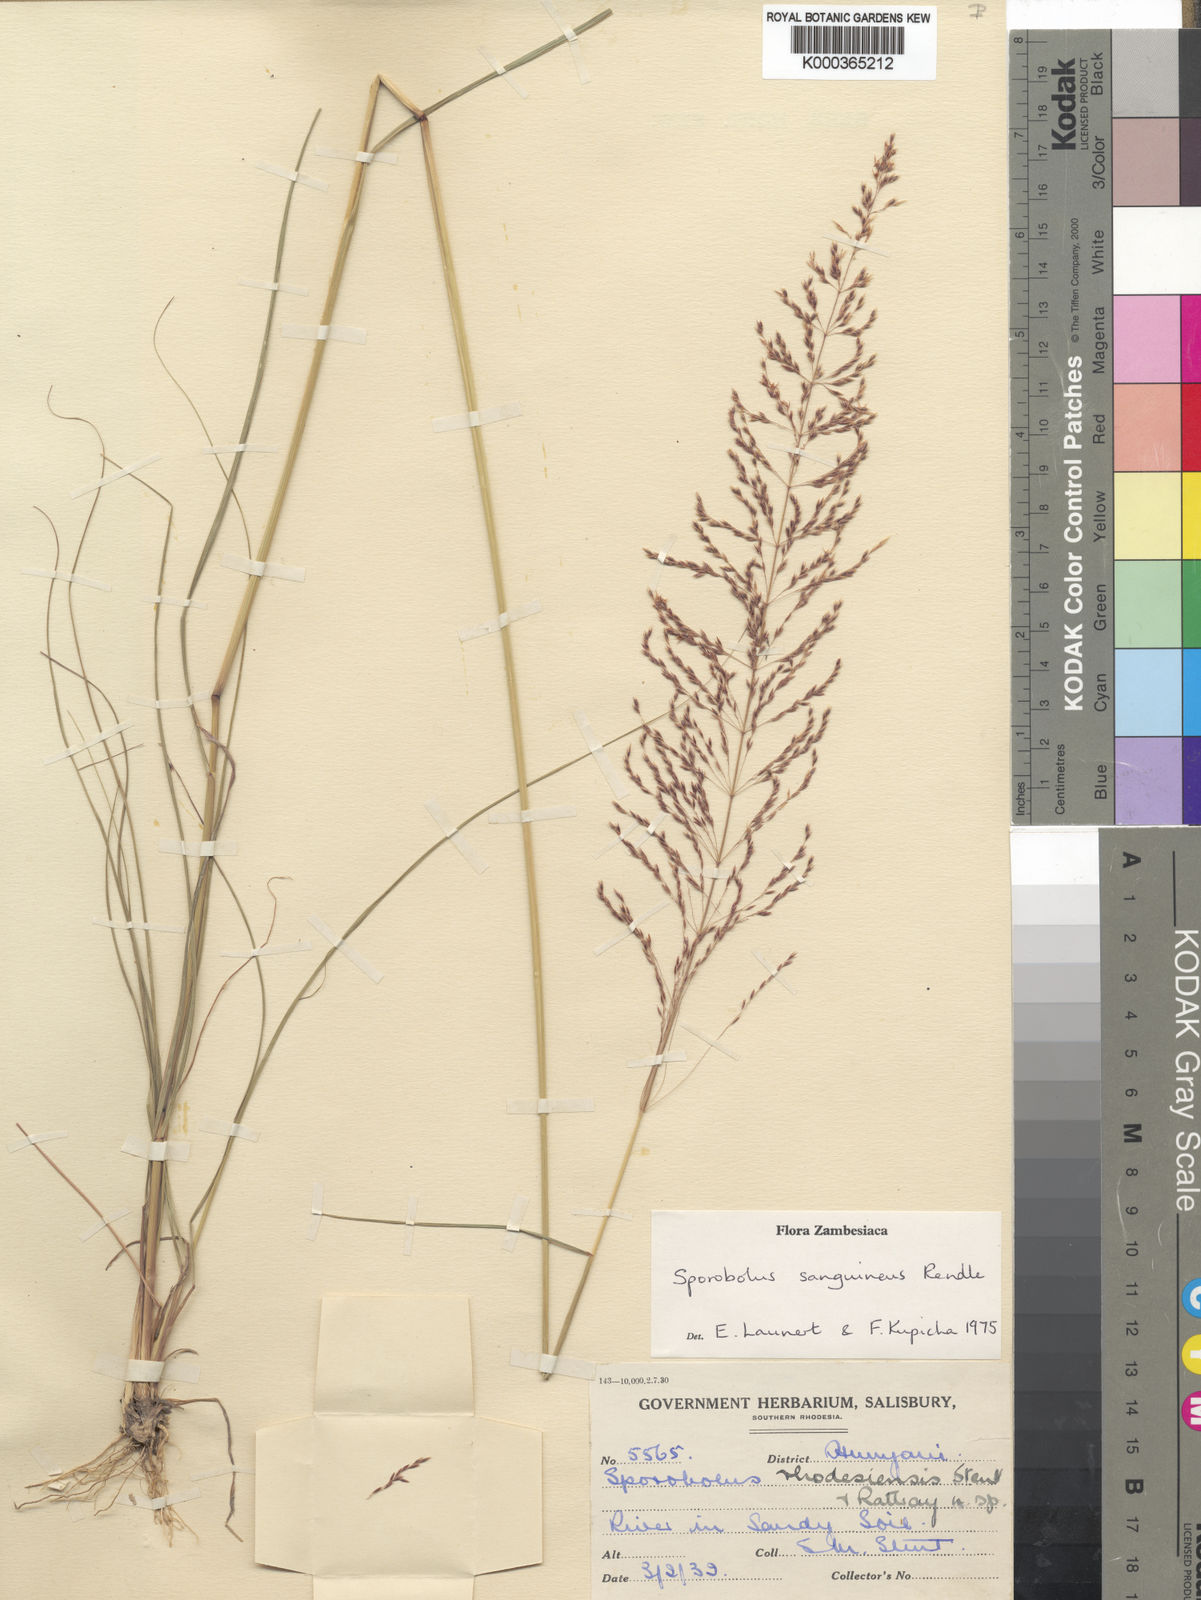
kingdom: Plantae
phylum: Tracheophyta
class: Liliopsida
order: Poales
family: Poaceae
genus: Sporobolus
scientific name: Sporobolus sanguineus
